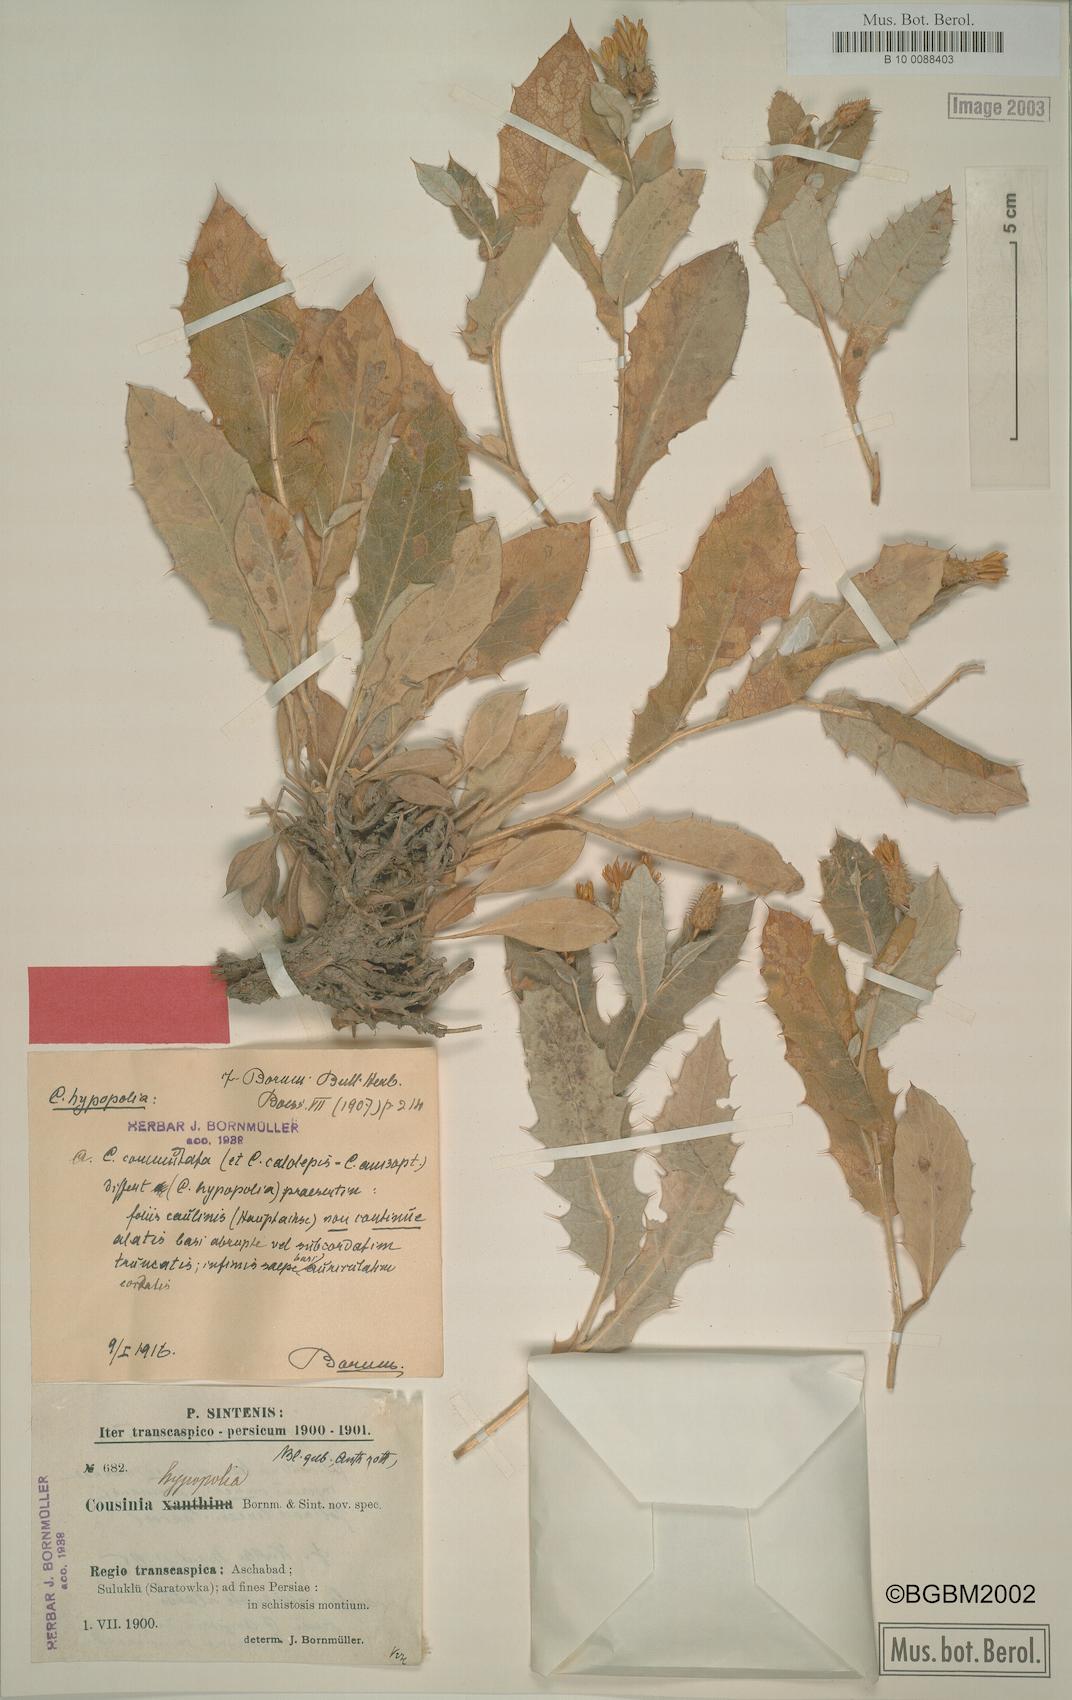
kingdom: Plantae
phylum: Tracheophyta
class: Magnoliopsida
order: Asterales
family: Asteraceae
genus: Cousinia
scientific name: Cousinia hypopolia
